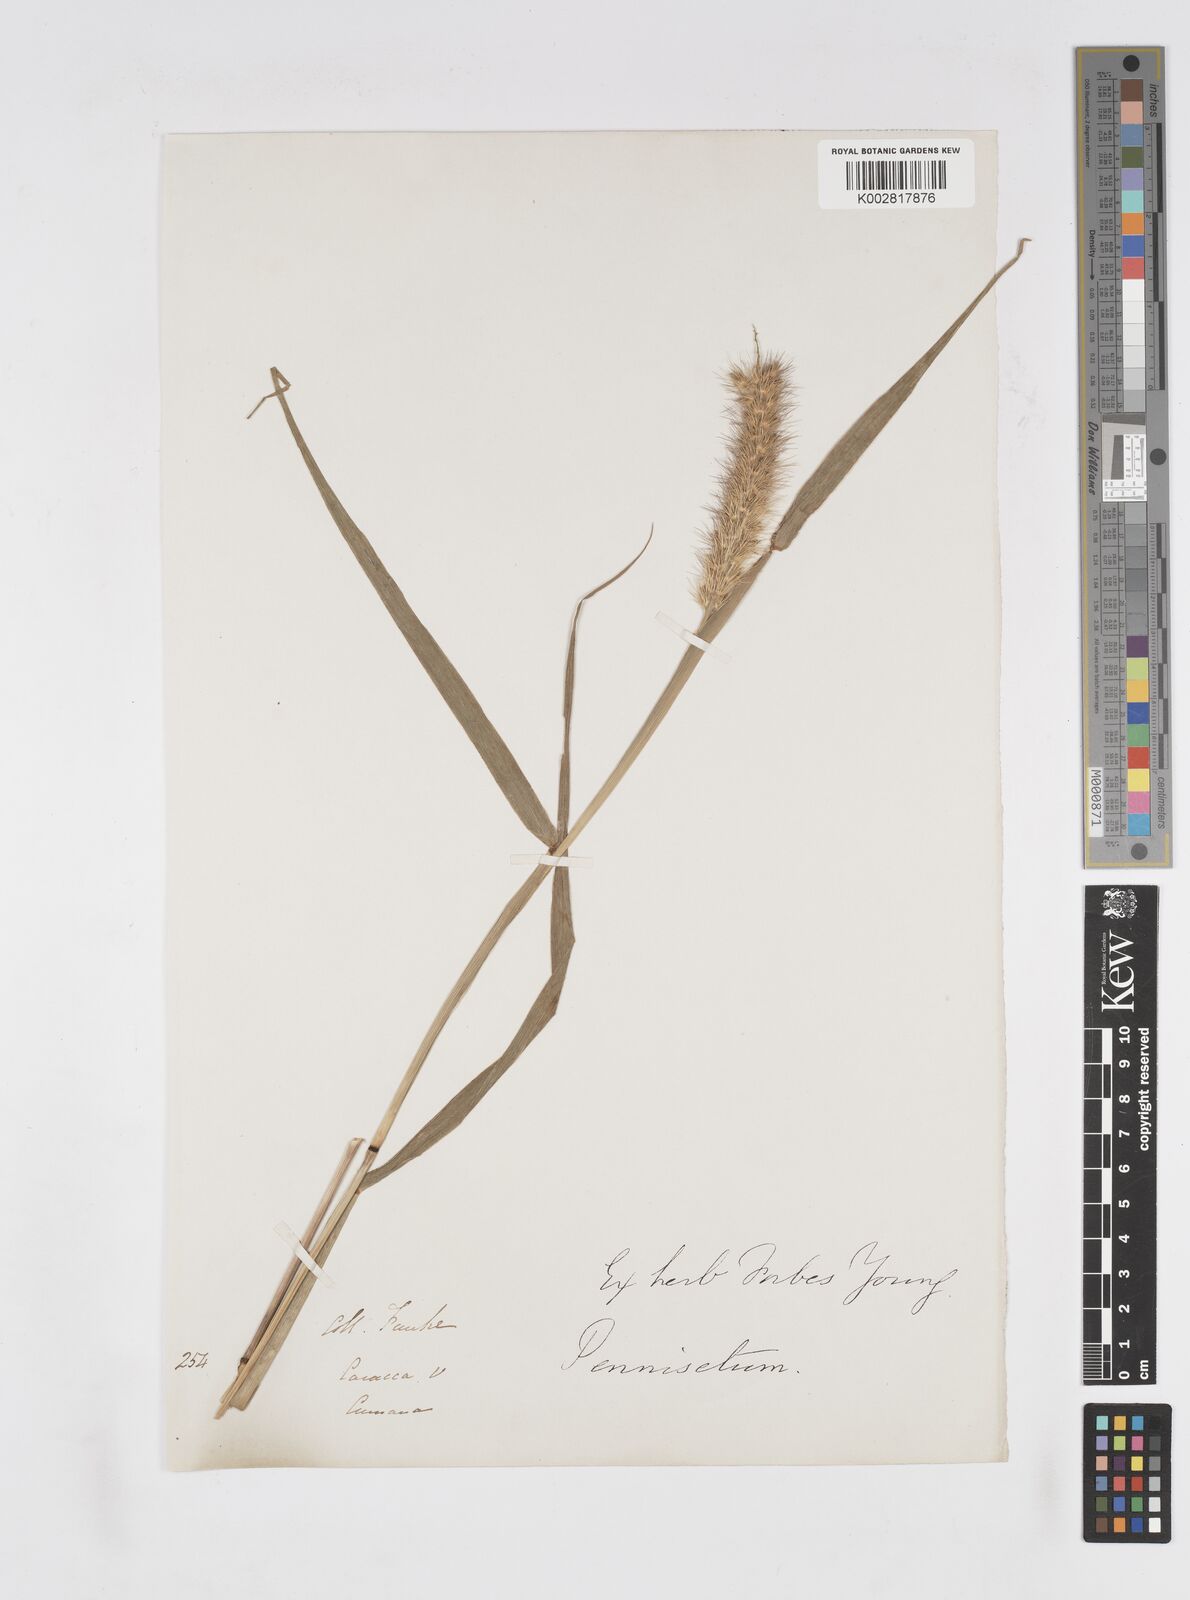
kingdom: Plantae
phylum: Tracheophyta
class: Liliopsida
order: Poales
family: Poaceae
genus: Cenchrus
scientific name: Cenchrus pilosus
